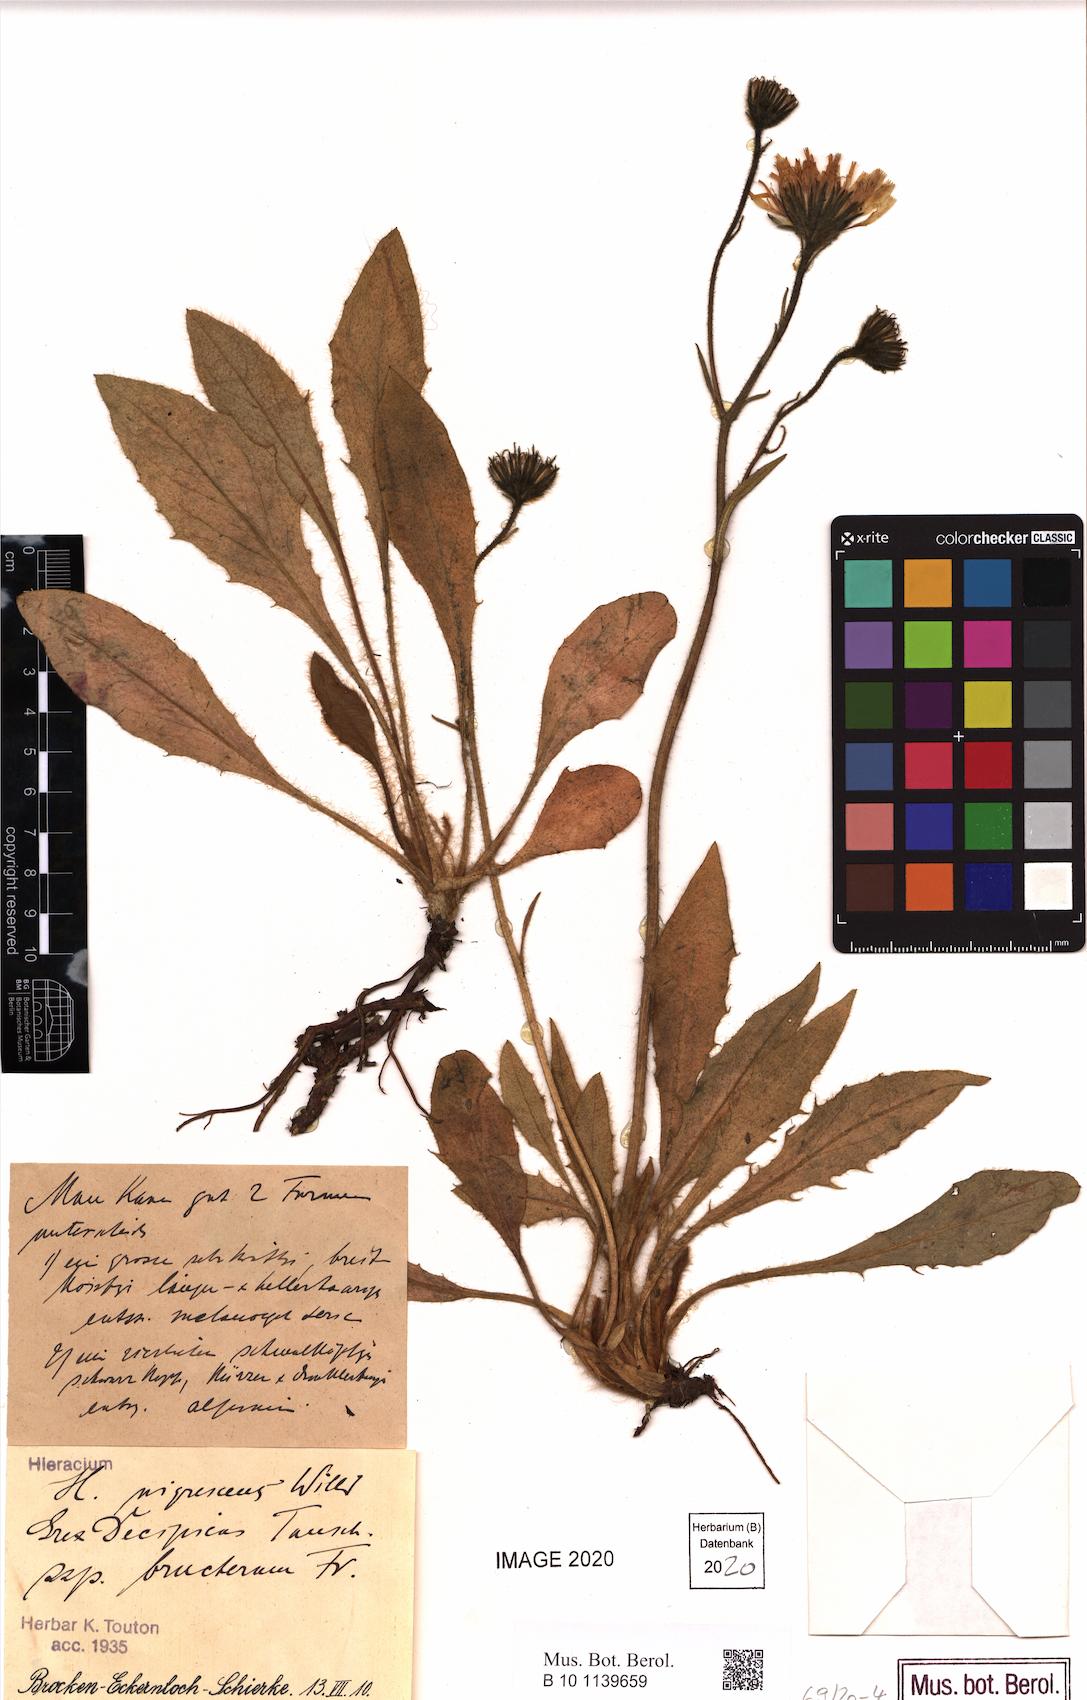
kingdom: Plantae
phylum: Tracheophyta
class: Magnoliopsida
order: Asterales
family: Asteraceae
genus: Hieracium
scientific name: Hieracium nigrescens
